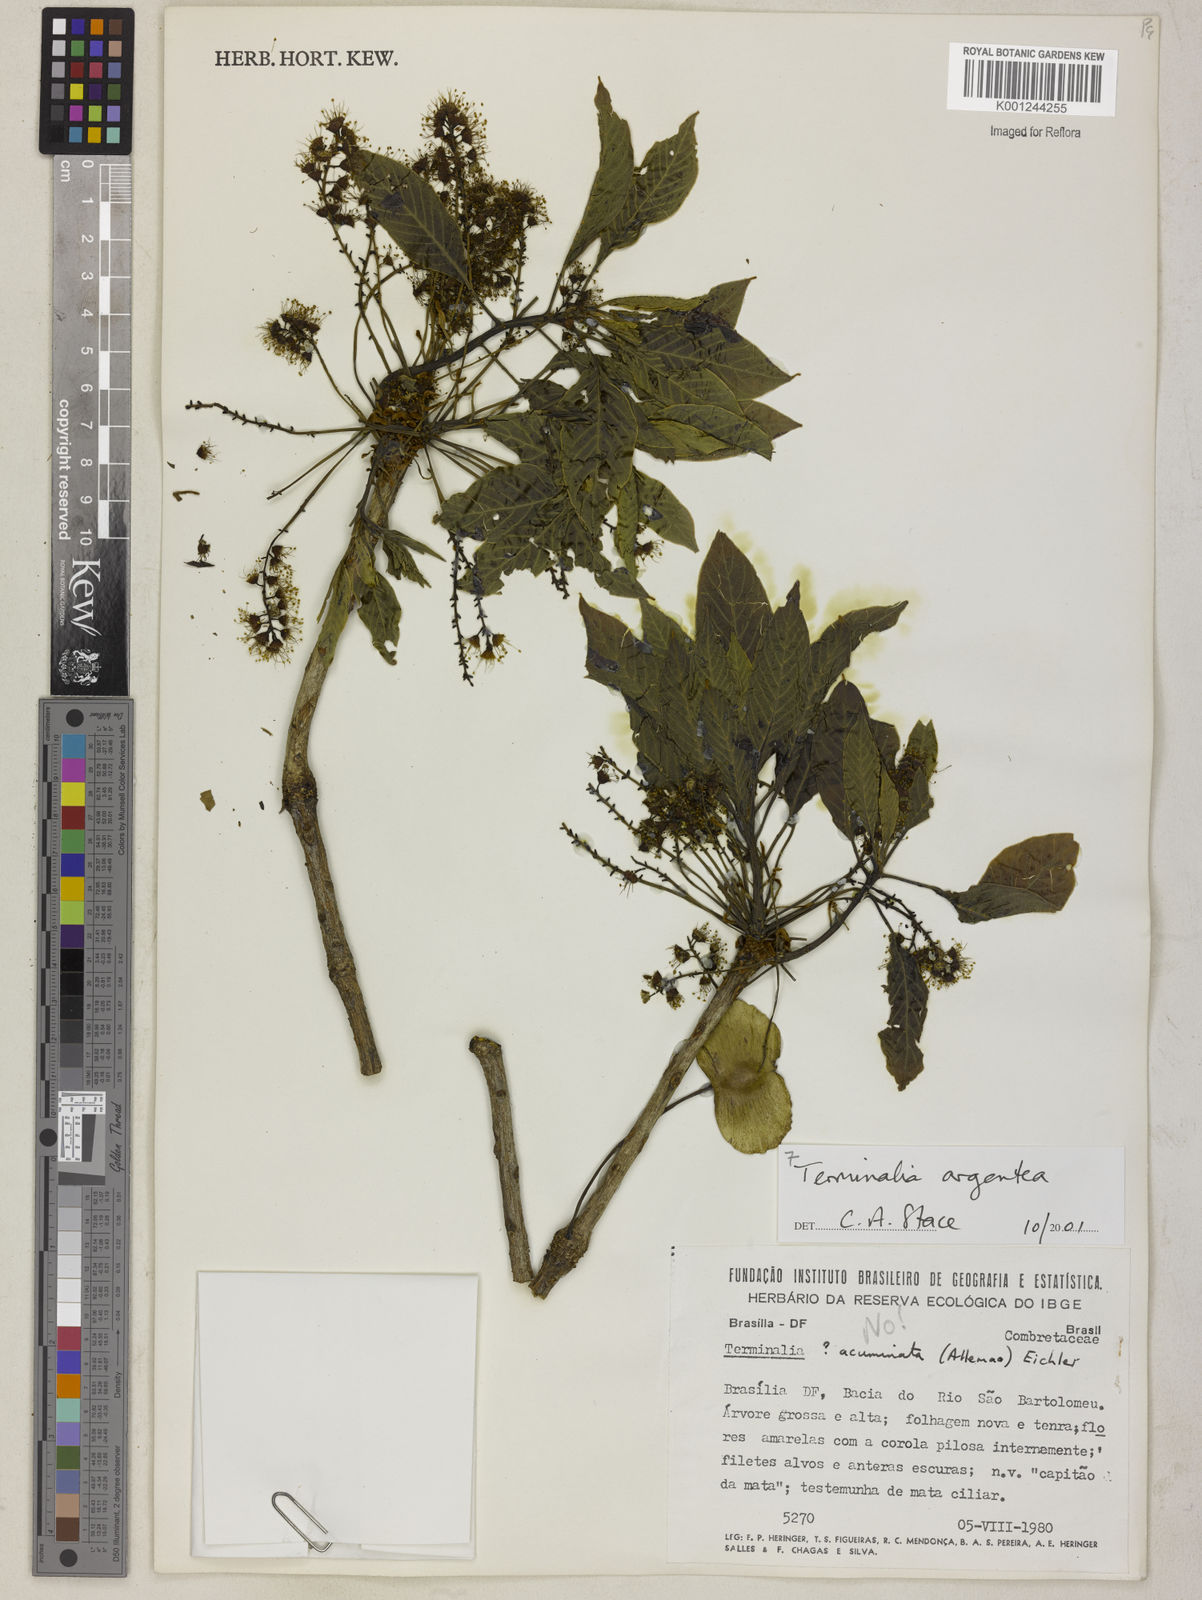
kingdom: Plantae
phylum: Tracheophyta
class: Magnoliopsida
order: Myrtales
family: Combretaceae
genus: Terminalia
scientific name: Terminalia argentea
